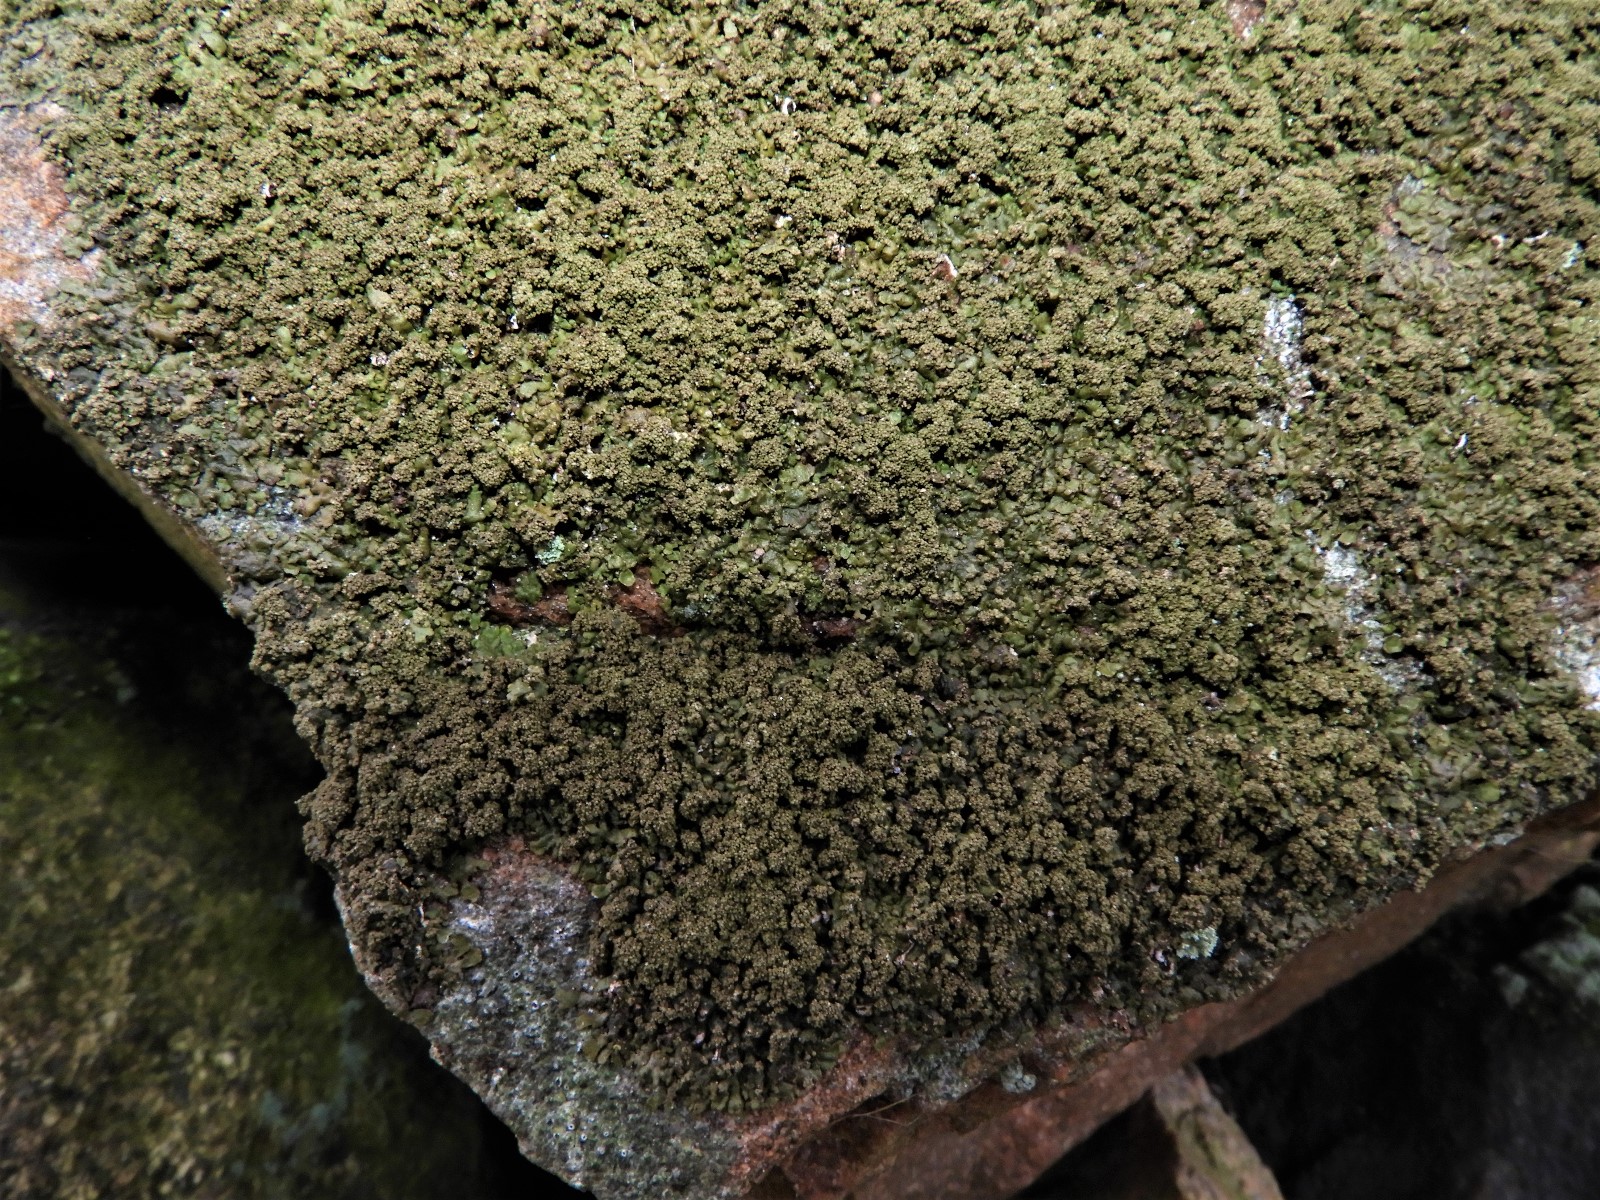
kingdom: Fungi
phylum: Ascomycota
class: Lecanoromycetes
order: Lecanorales
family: Parmeliaceae
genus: Xanthoparmelia
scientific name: Xanthoparmelia verruculifera
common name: småknoppet skållav
